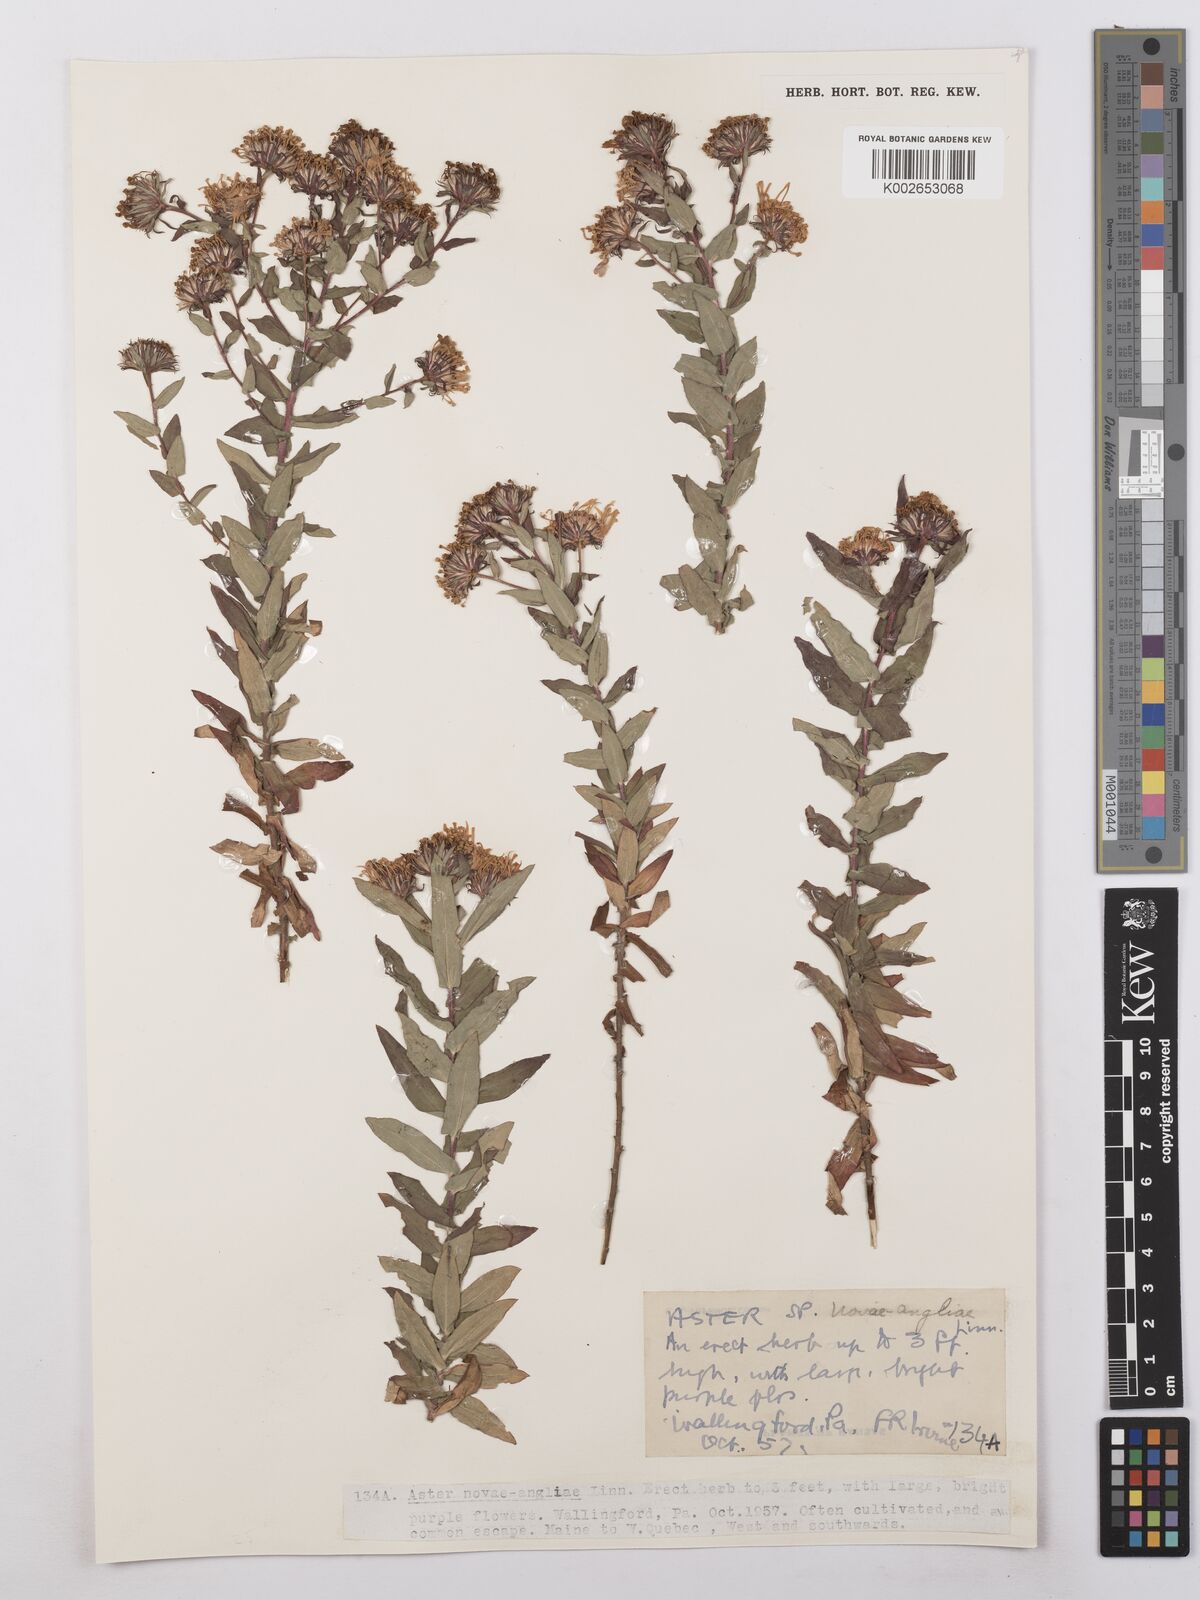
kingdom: Plantae
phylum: Tracheophyta
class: Magnoliopsida
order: Asterales
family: Asteraceae
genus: Symphyotrichum
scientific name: Symphyotrichum novae-angliae
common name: Michaelmas daisy
